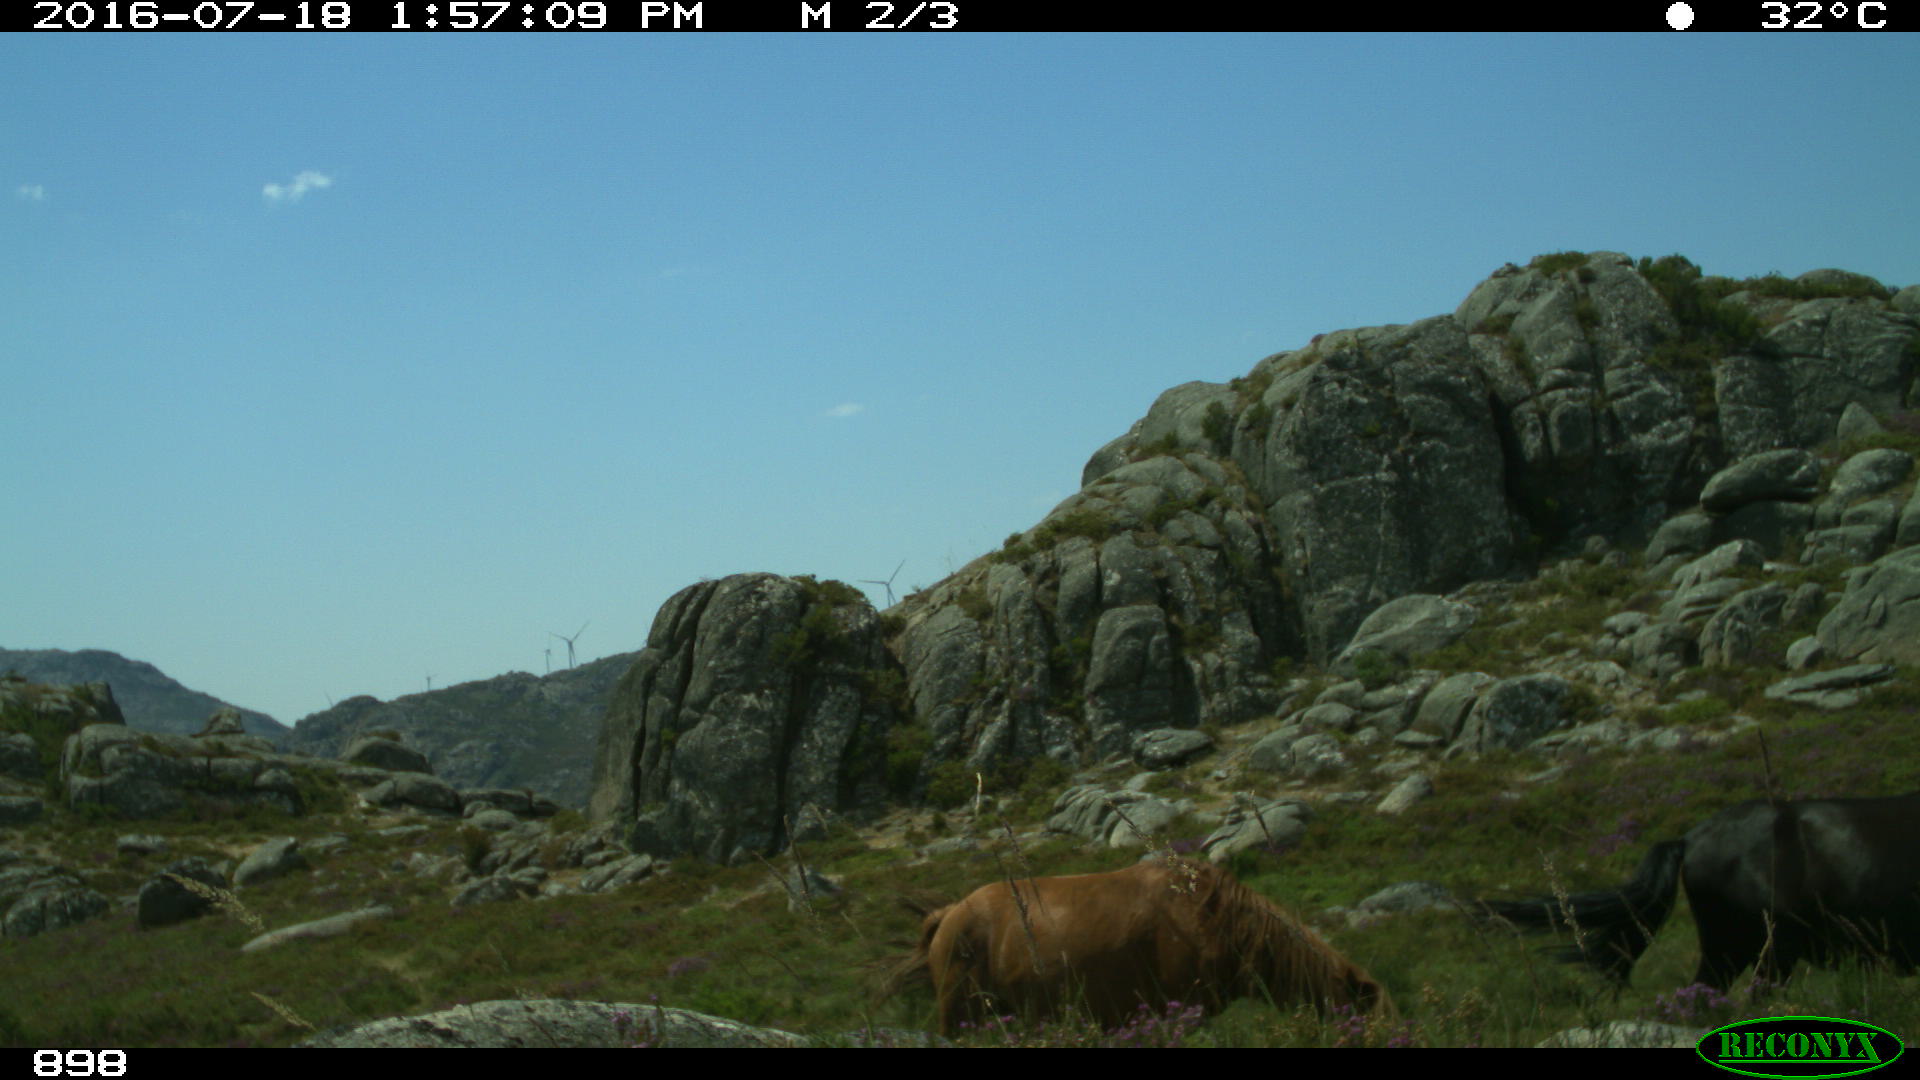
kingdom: Animalia
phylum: Chordata
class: Mammalia
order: Perissodactyla
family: Equidae
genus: Equus
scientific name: Equus caballus
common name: Horse
